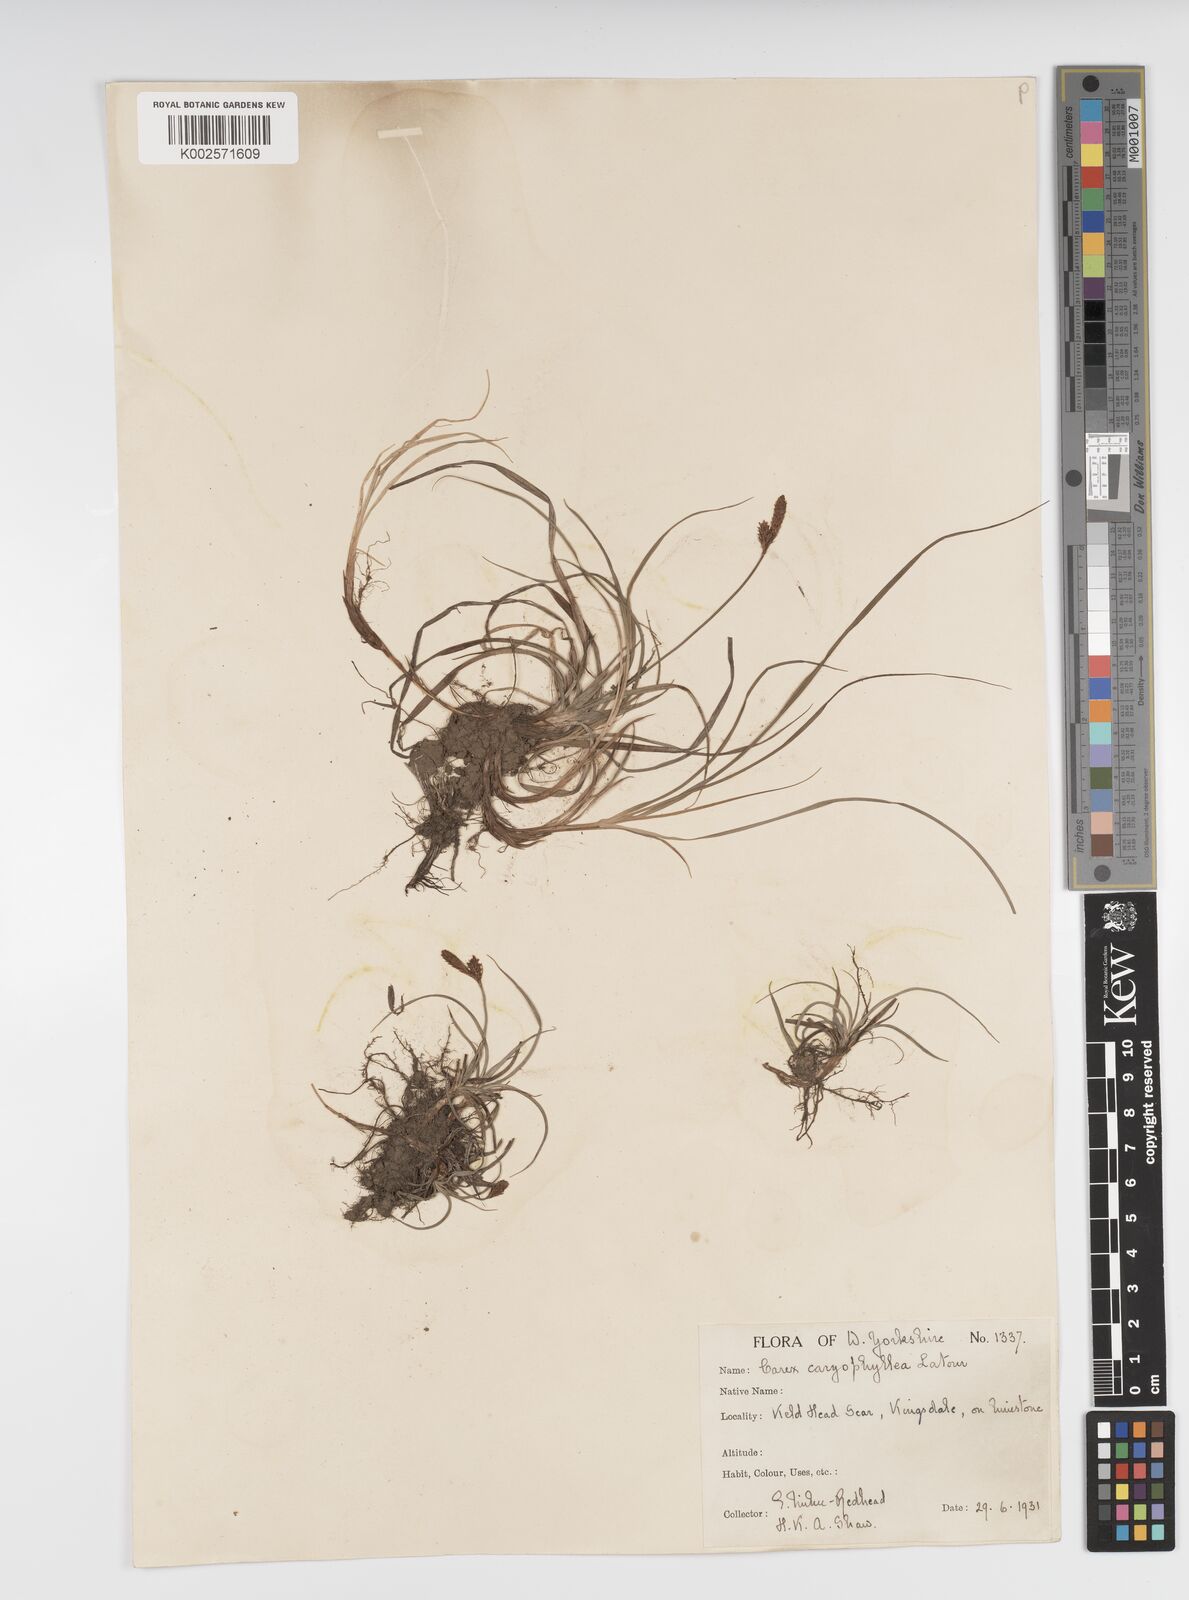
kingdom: Plantae
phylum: Tracheophyta
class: Liliopsida
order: Poales
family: Cyperaceae
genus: Carex
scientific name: Carex caryophyllea
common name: Spring sedge
